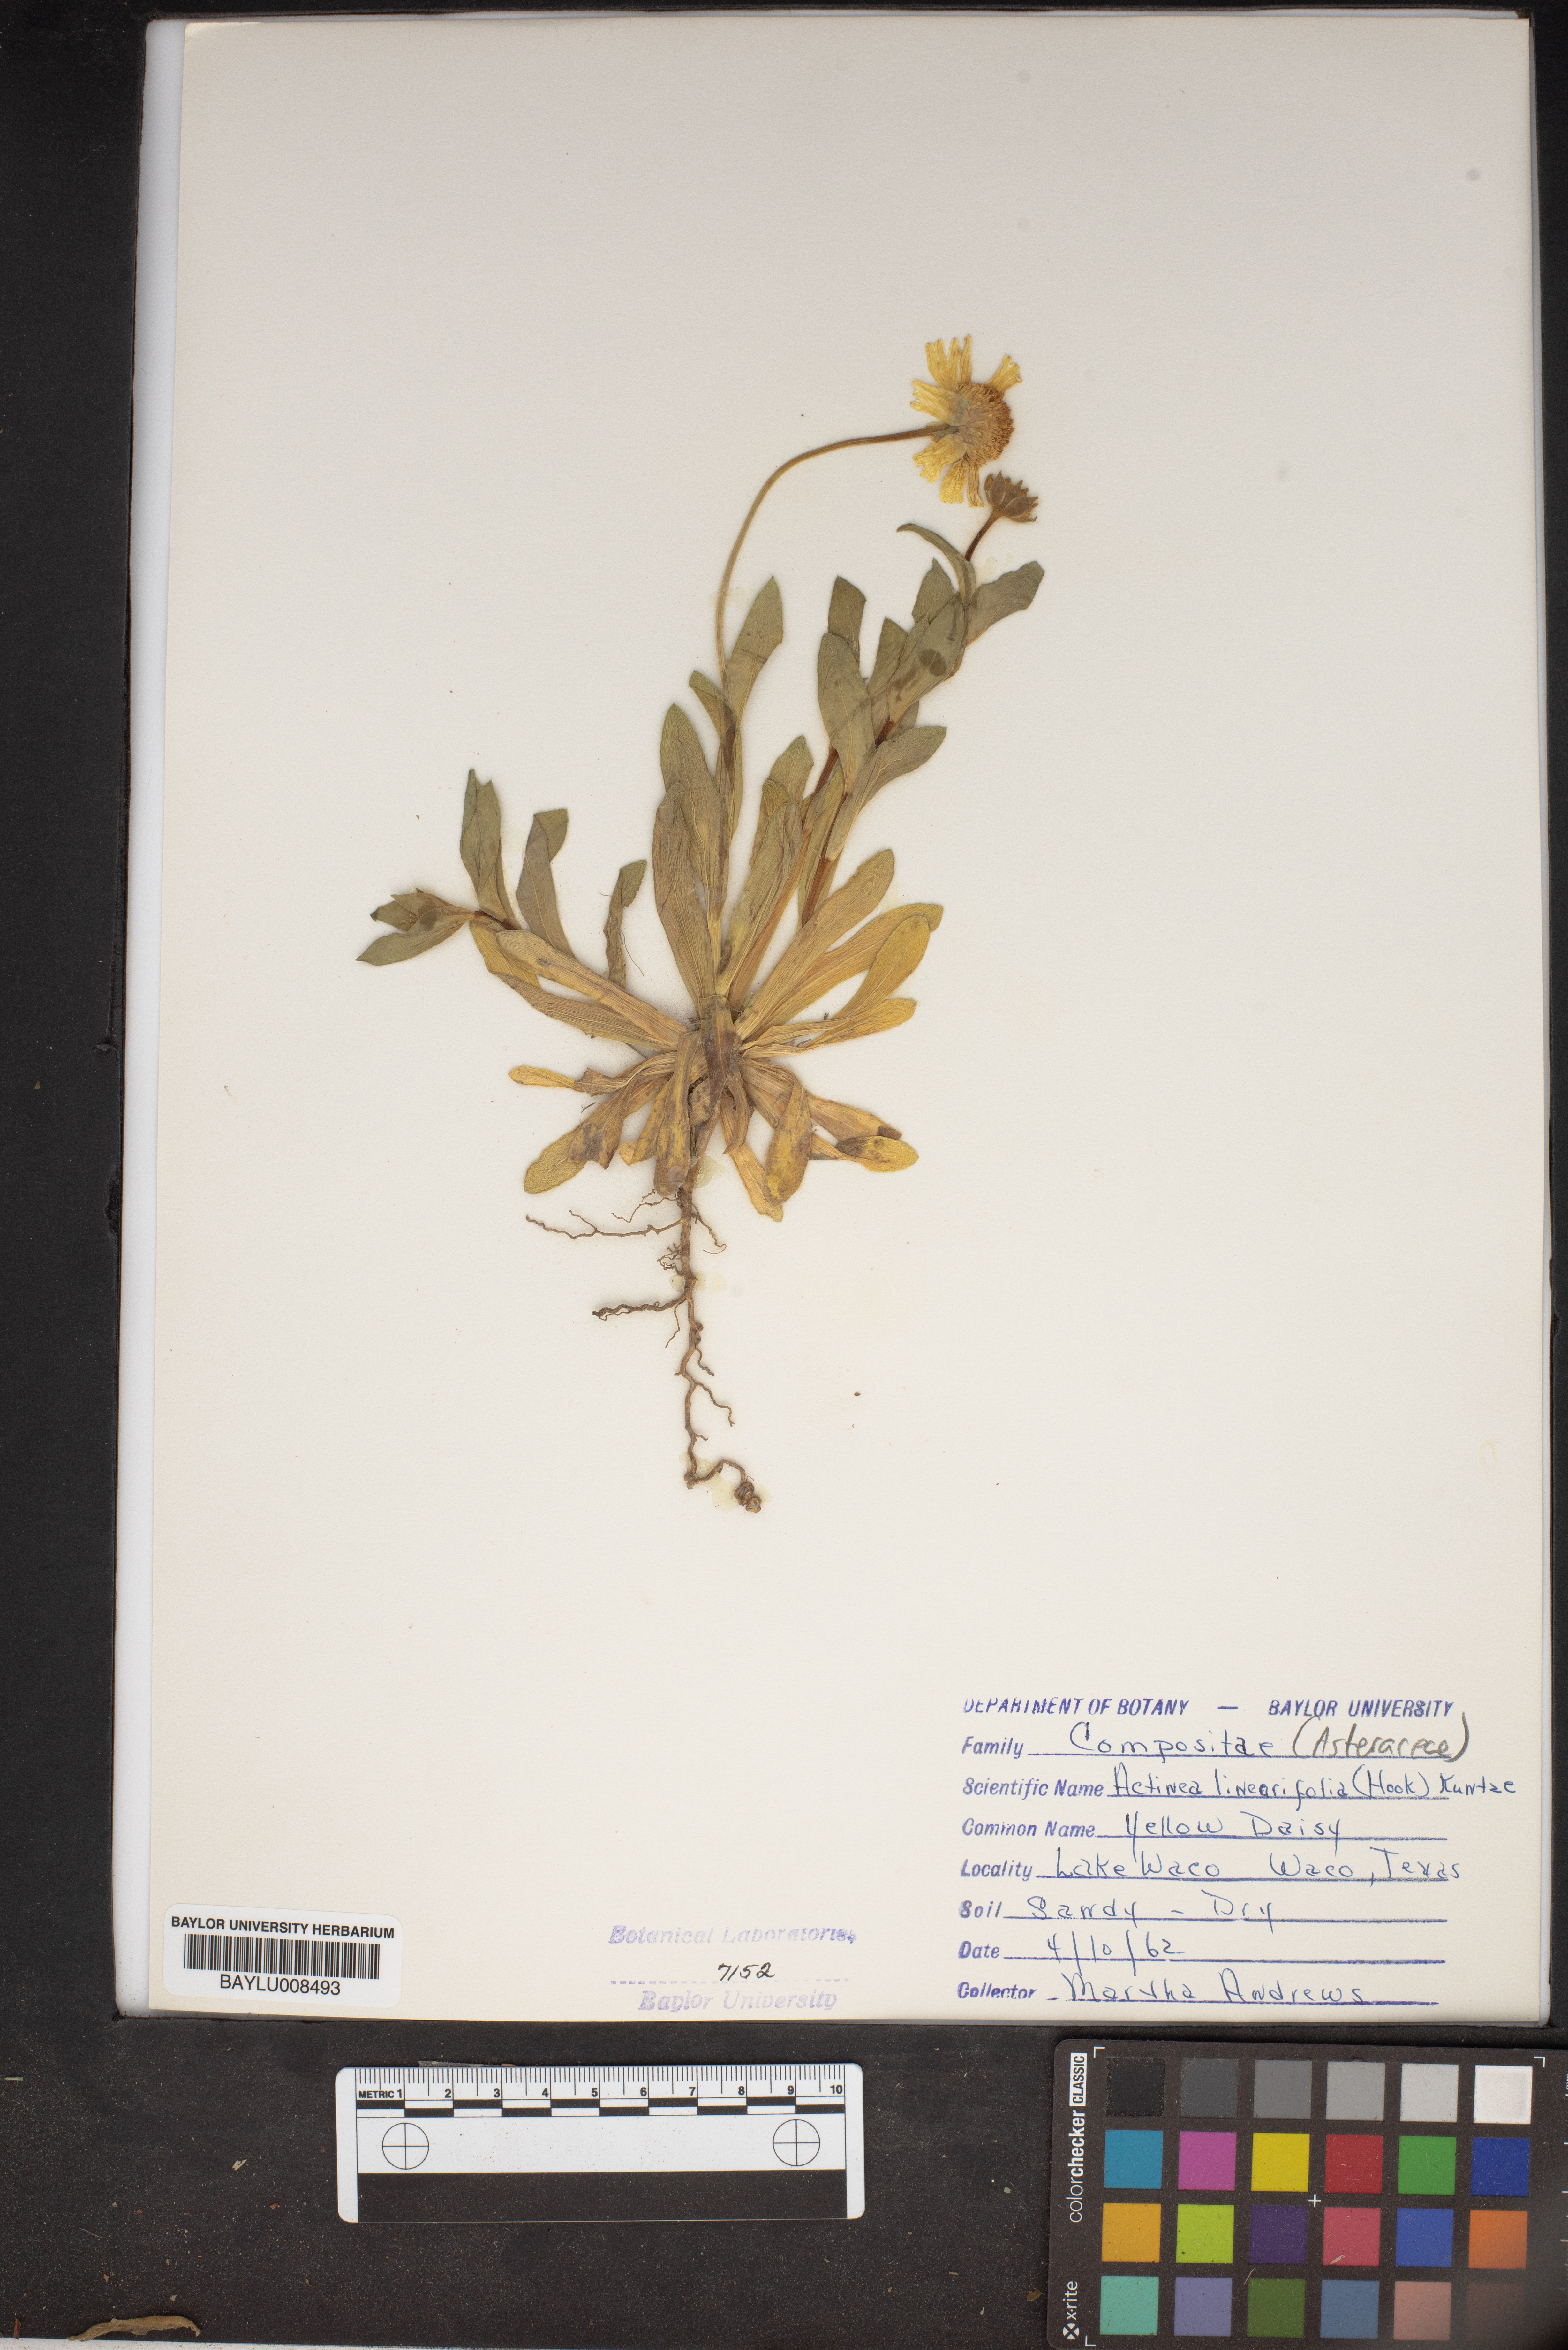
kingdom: Plantae
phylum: Tracheophyta
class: Magnoliopsida
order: Asterales
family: Asteraceae
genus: Tetraneuris
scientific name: Tetraneuris linearifolia
